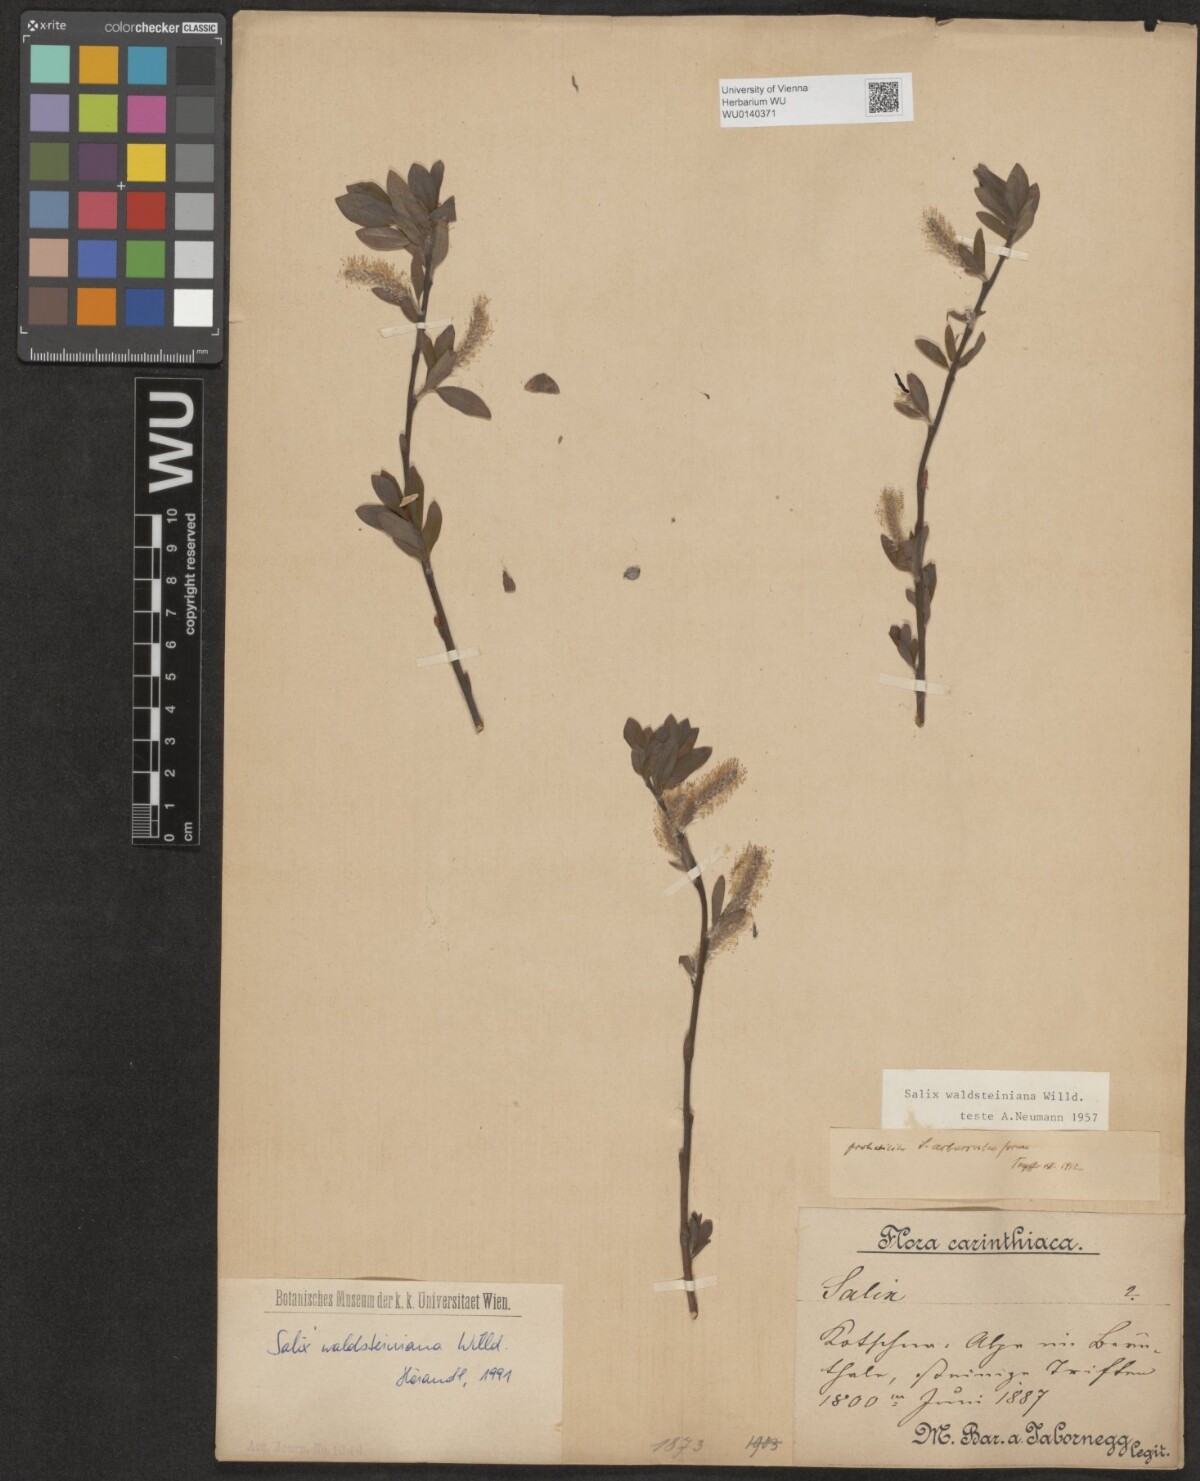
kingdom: Plantae
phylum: Tracheophyta
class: Magnoliopsida
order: Malpighiales
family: Salicaceae
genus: Salix
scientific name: Salix waldsteiniana
